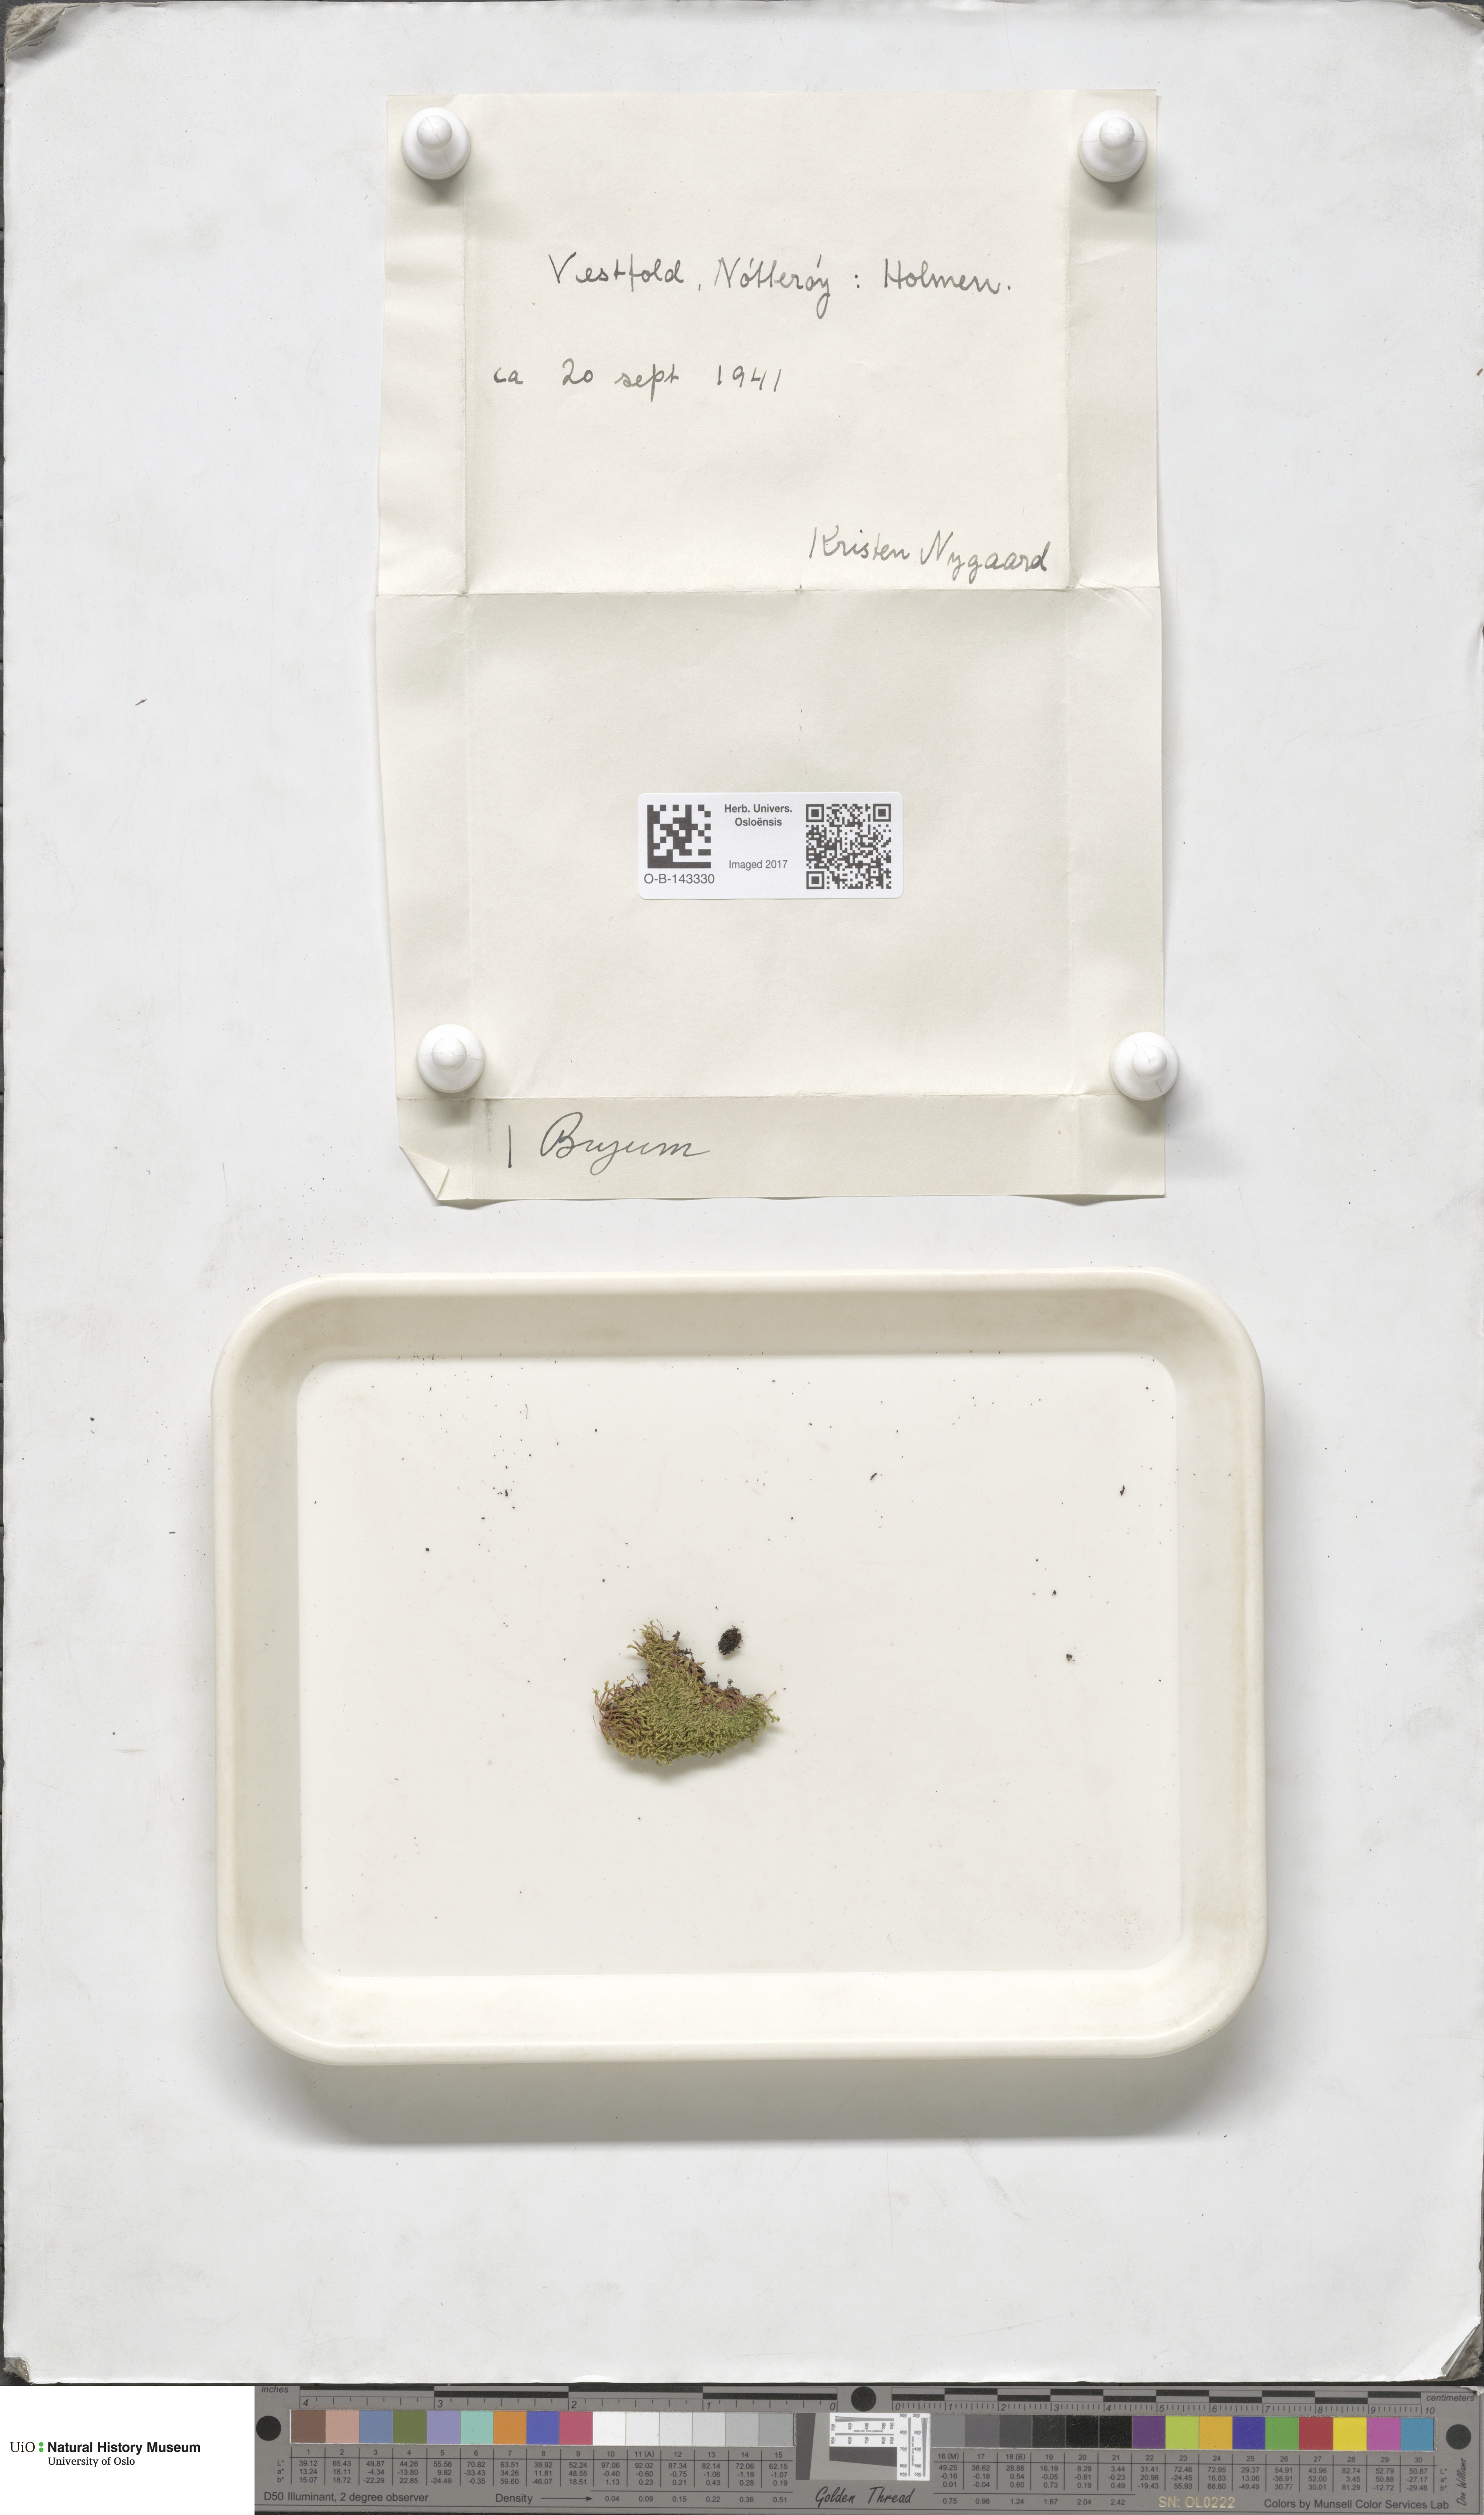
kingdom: Plantae
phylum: Bryophyta
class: Bryopsida
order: Bryales
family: Bryaceae
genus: Bryum
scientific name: Bryum
